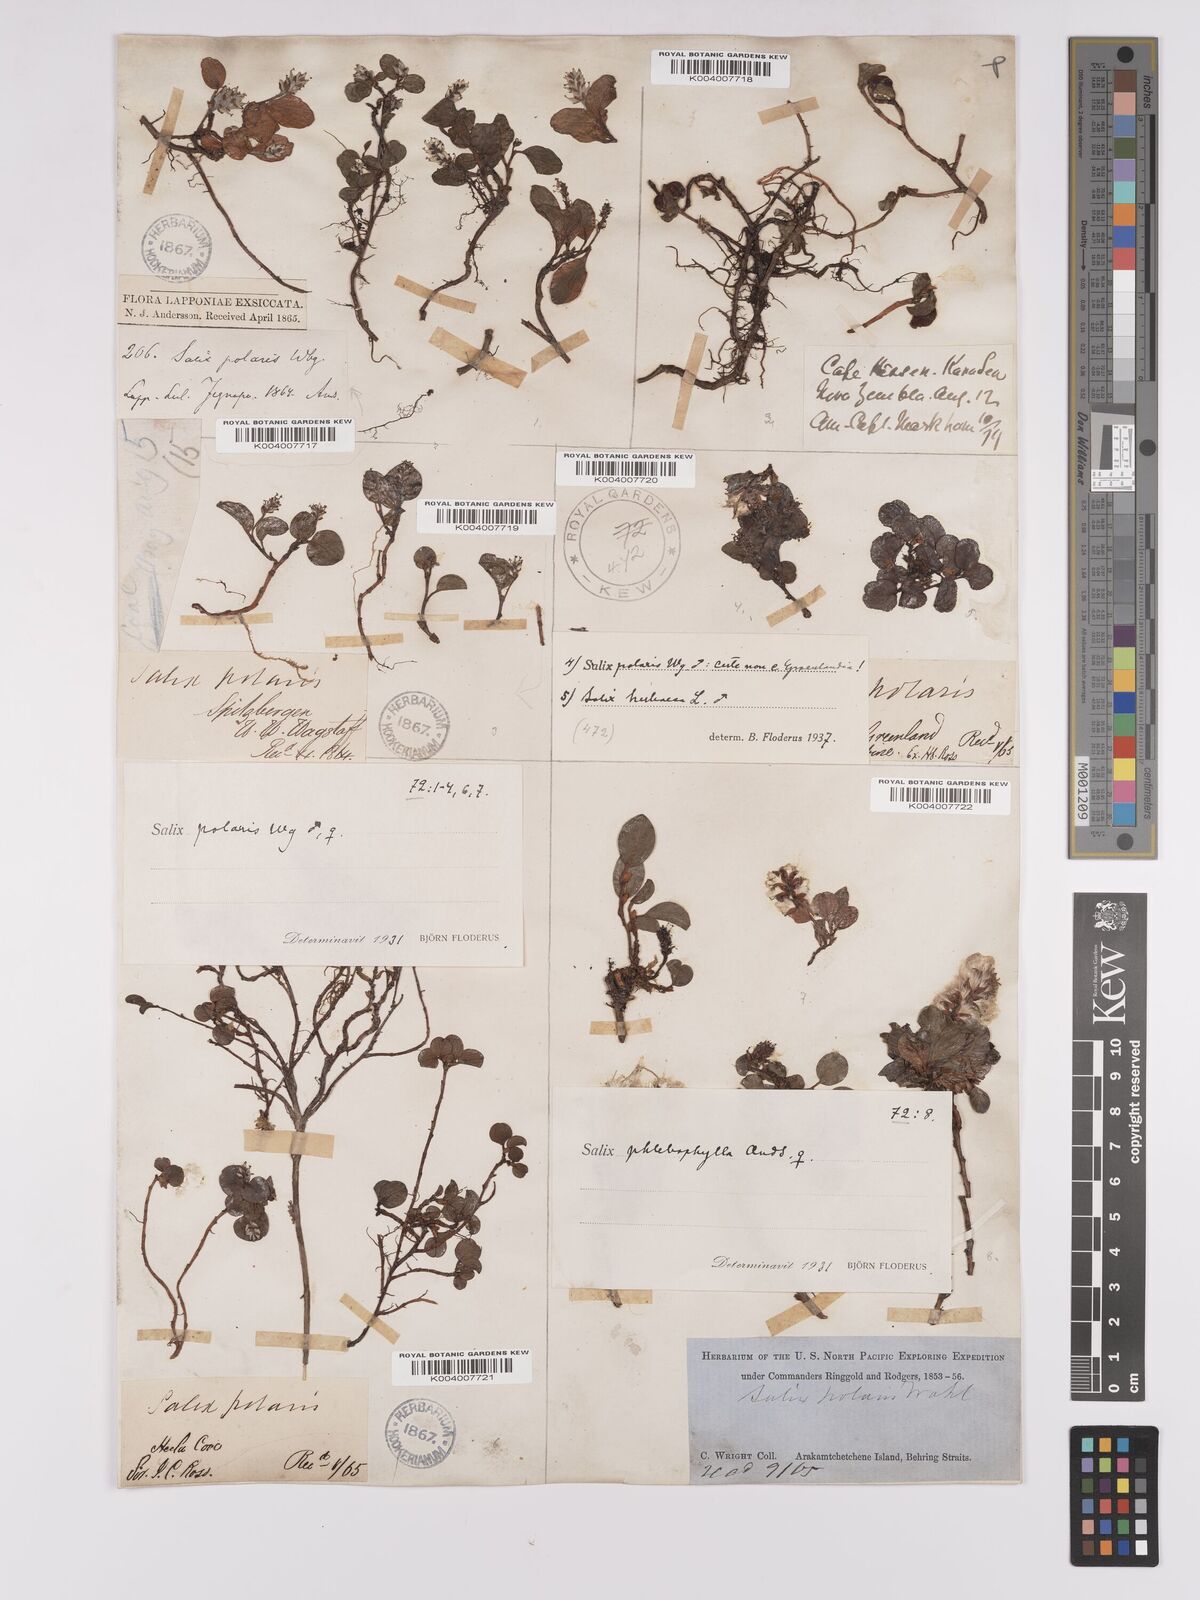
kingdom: Plantae
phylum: Tracheophyta
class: Magnoliopsida
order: Malpighiales
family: Salicaceae
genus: Salix
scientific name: Salix polaris
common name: Polar willow
